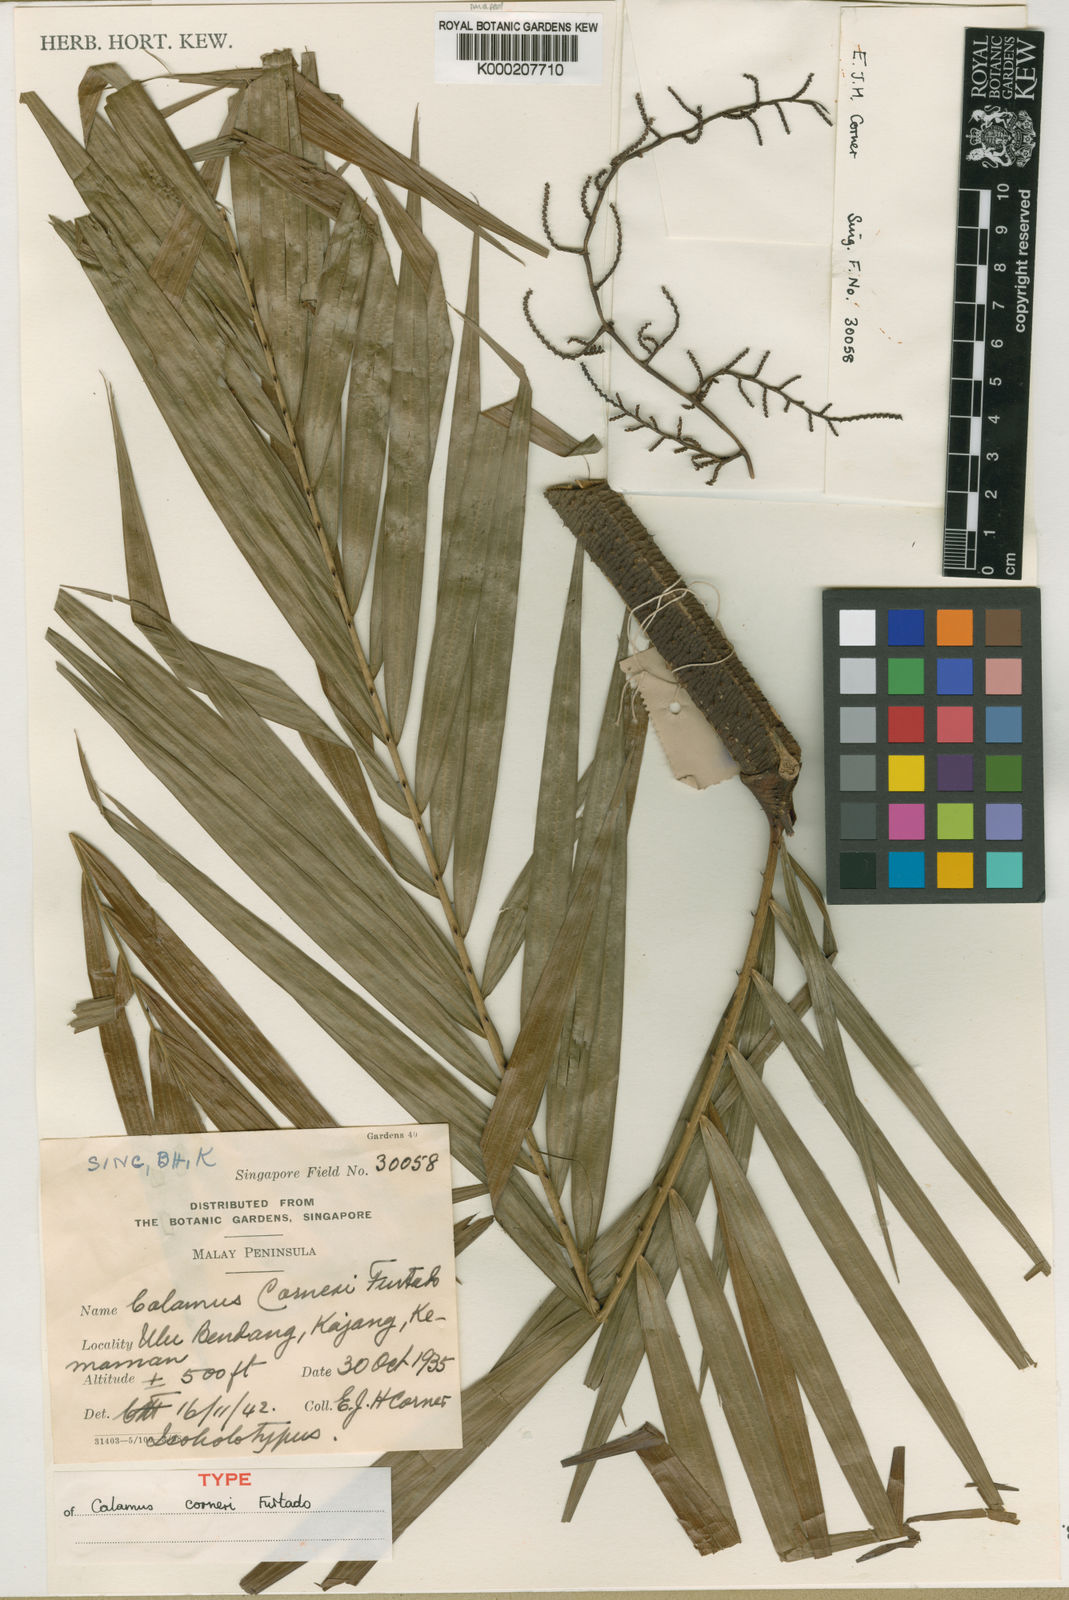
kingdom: Plantae
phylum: Tracheophyta
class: Liliopsida
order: Arecales
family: Arecaceae
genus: Calamus
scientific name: Calamus zonatus
